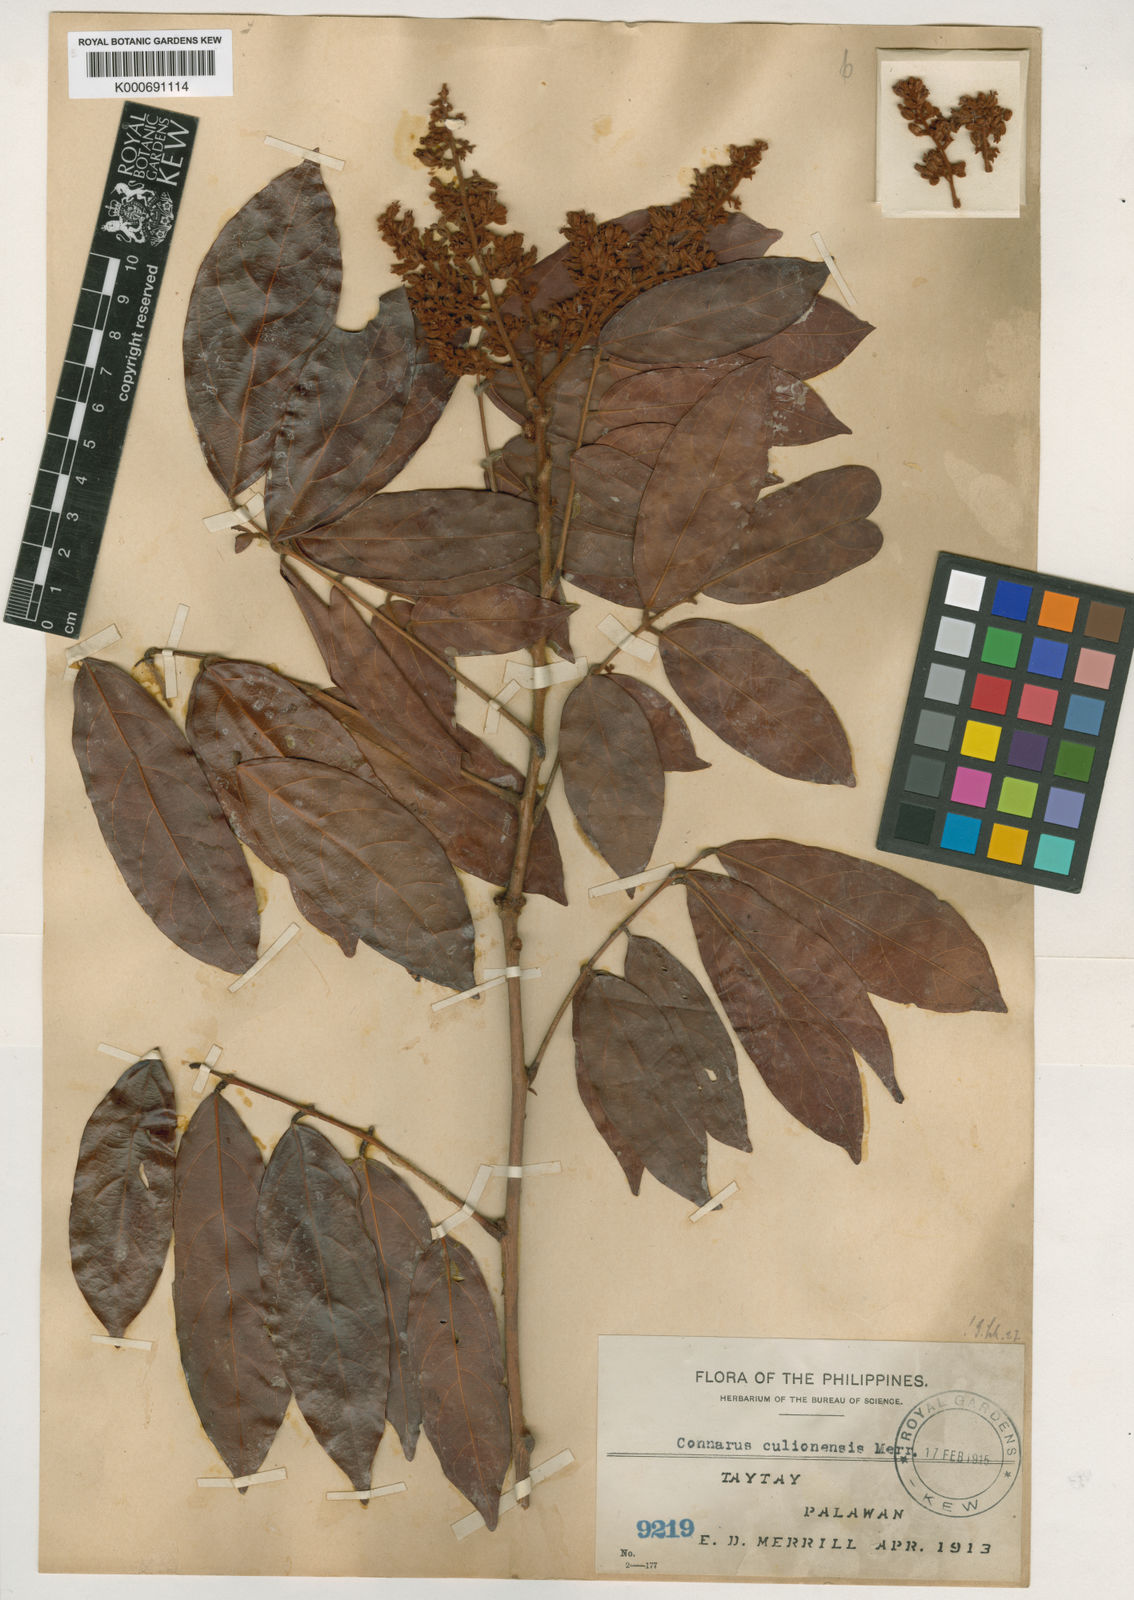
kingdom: Plantae
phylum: Tracheophyta
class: Magnoliopsida
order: Oxalidales
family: Connaraceae
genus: Connarus
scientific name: Connarus culionensis
